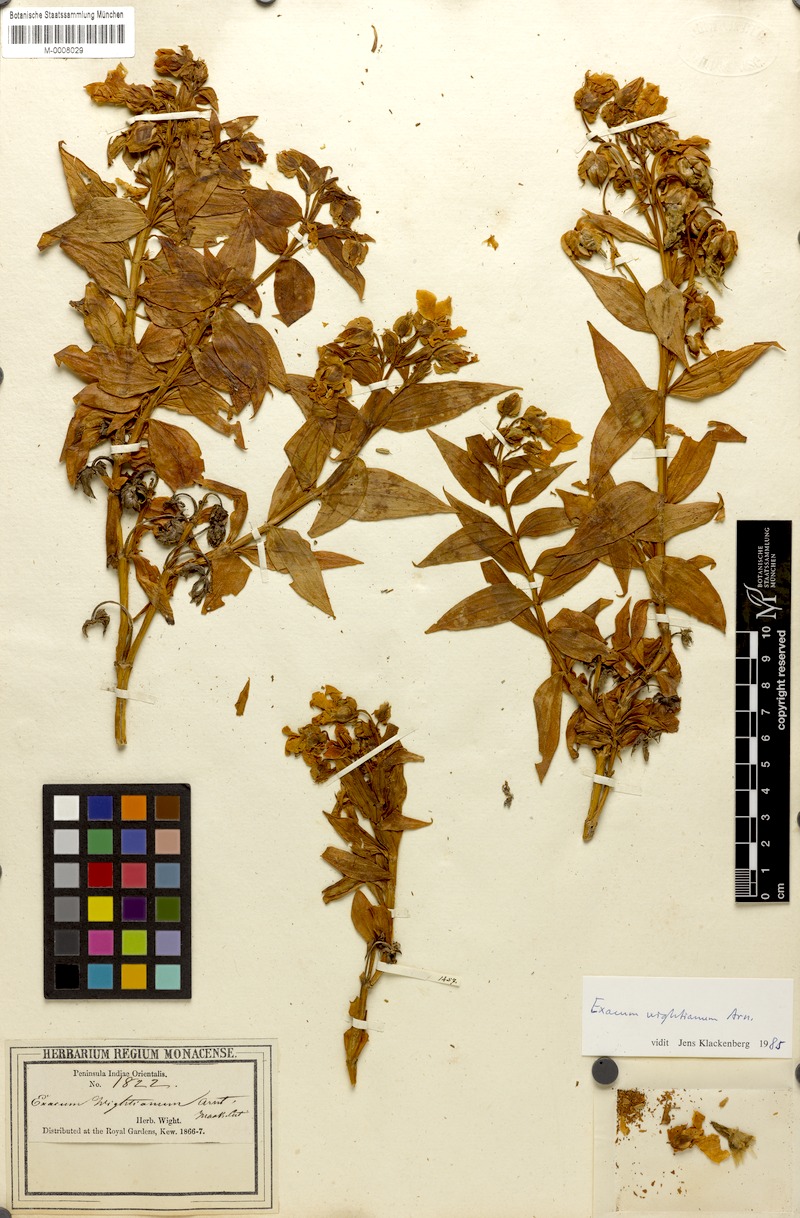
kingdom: Plantae
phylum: Tracheophyta
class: Magnoliopsida
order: Gentianales
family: Gentianaceae
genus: Exacum
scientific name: Exacum wightianum
